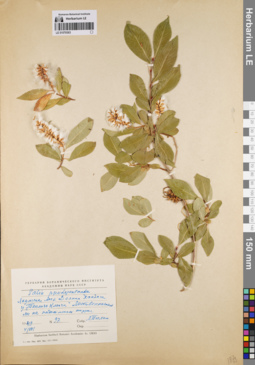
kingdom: Plantae
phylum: Tracheophyta
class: Magnoliopsida
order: Malpighiales
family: Salicaceae
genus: Salix
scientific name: Salix pseudopentandra
